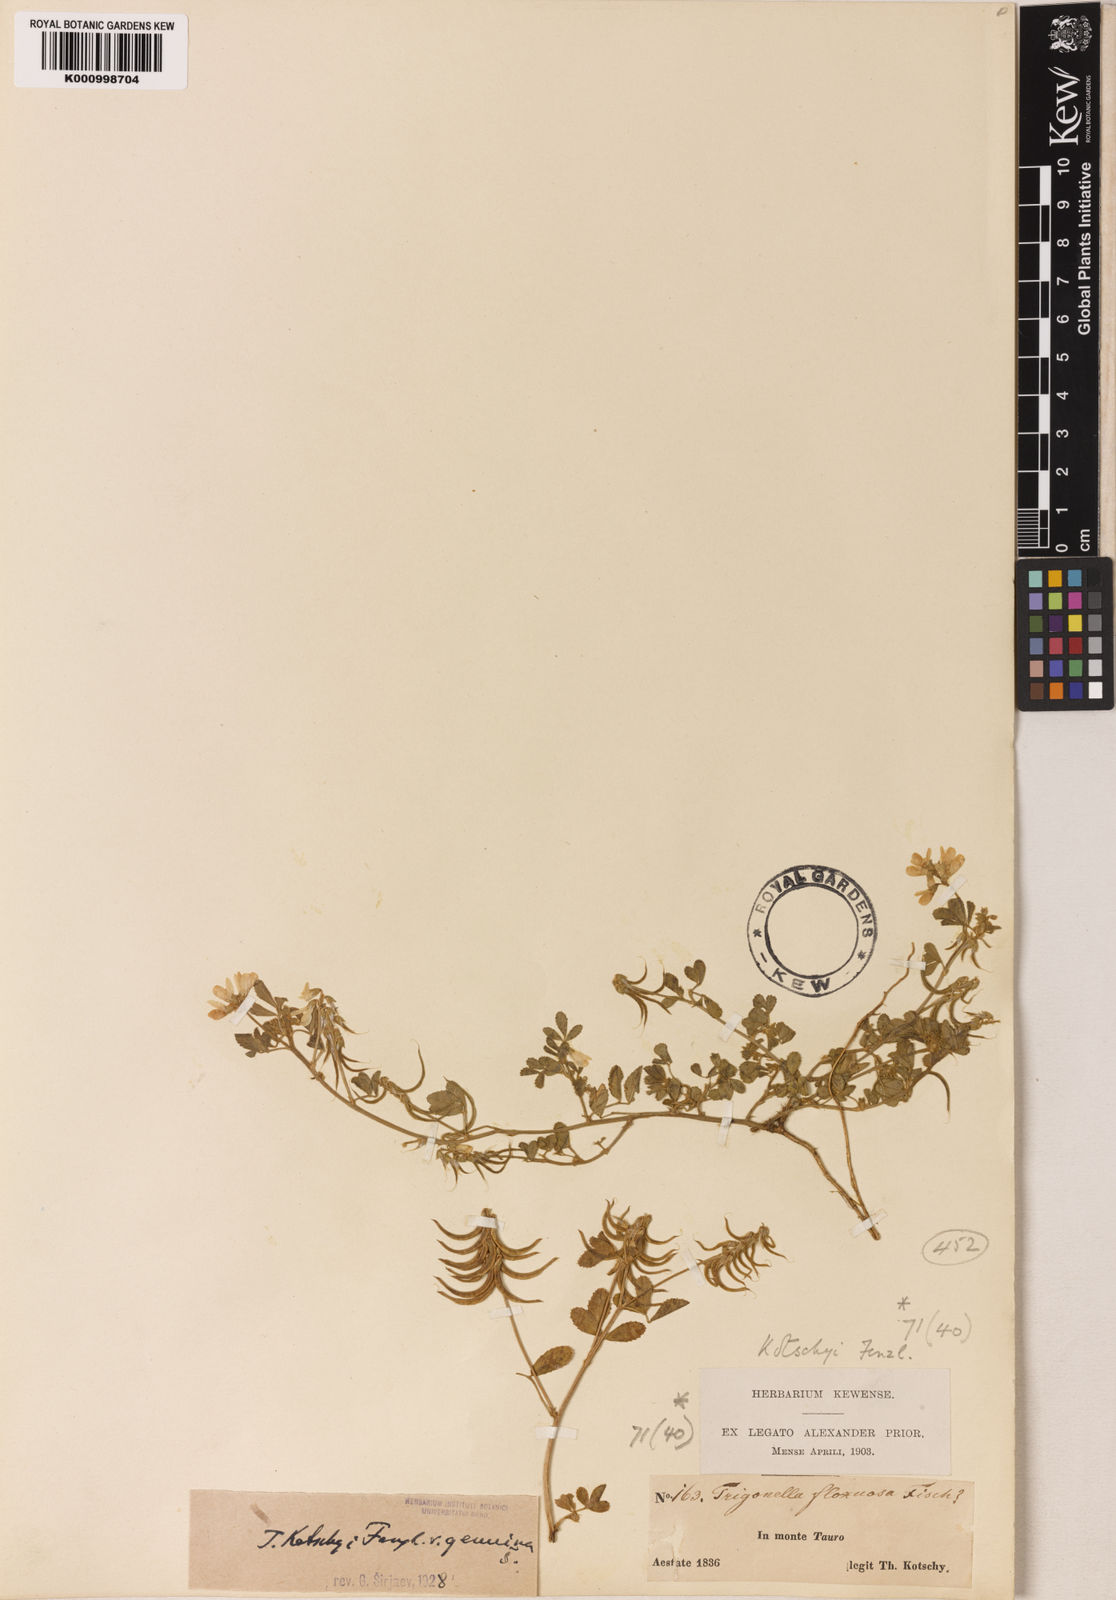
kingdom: Plantae
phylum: Tracheophyta
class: Magnoliopsida
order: Fabales
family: Fabaceae
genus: Trigonella
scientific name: Trigonella kotschyi
